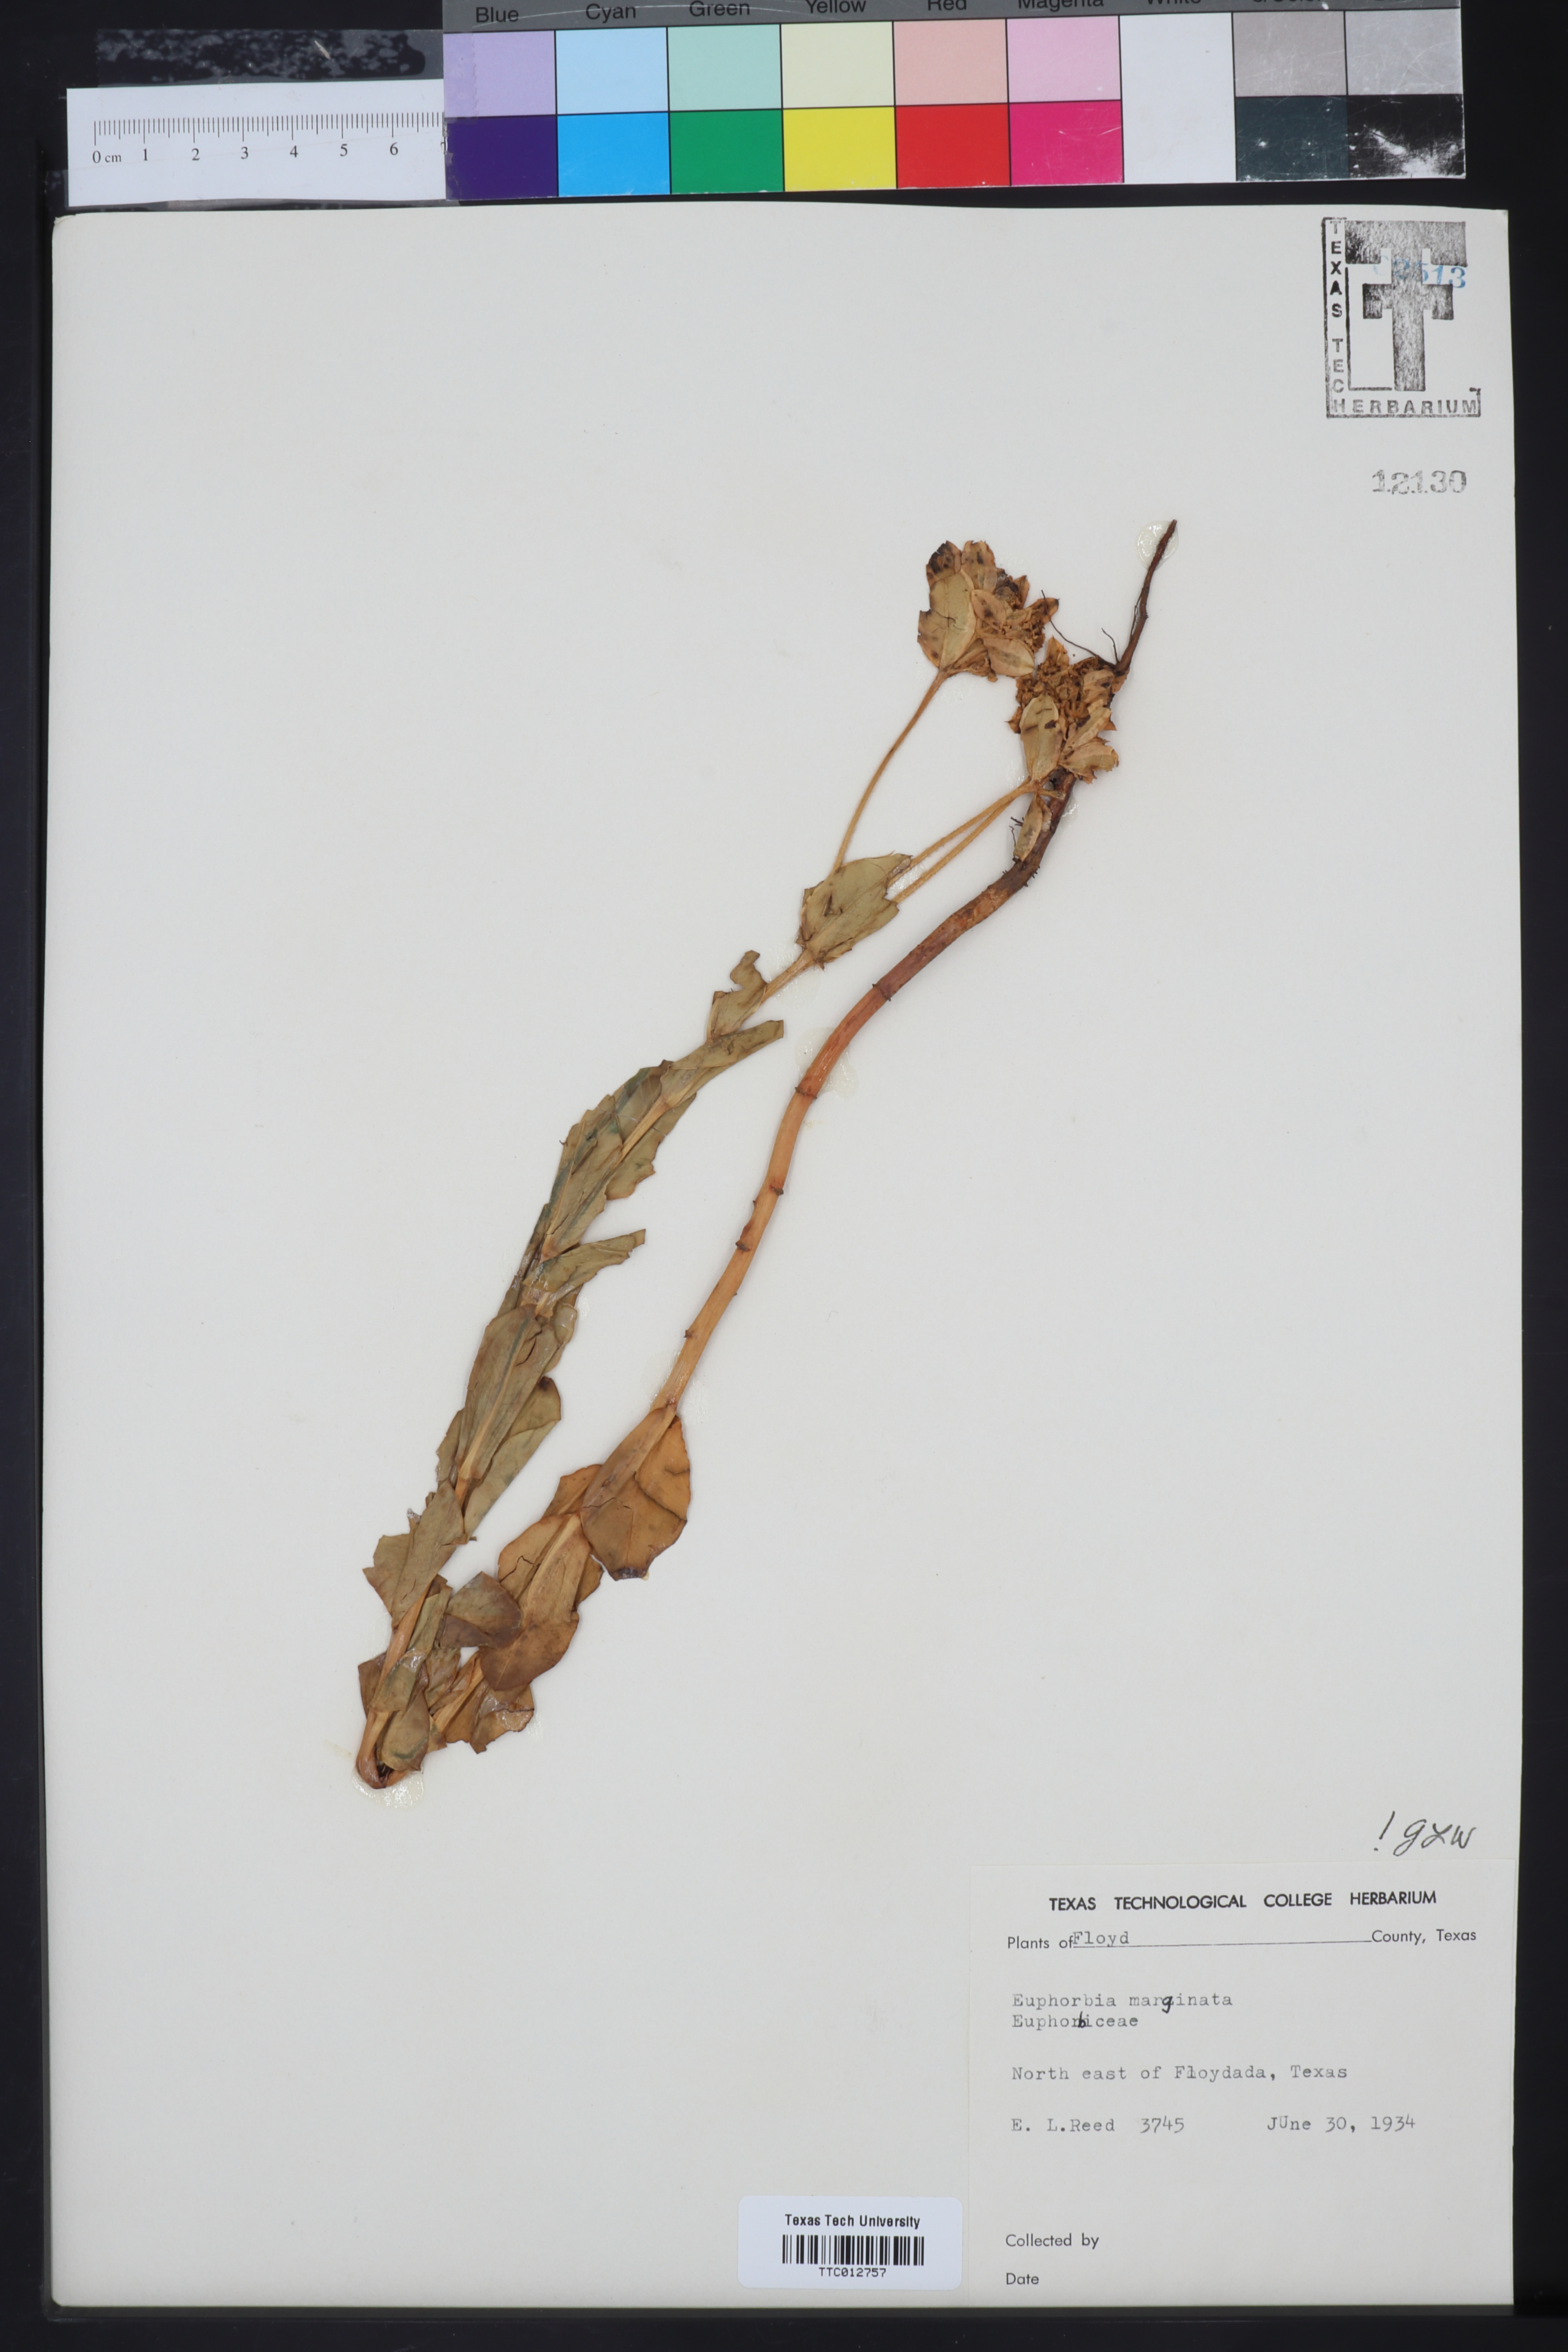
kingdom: Plantae
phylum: Tracheophyta
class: Magnoliopsida
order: Malpighiales
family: Euphorbiaceae
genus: Euphorbia
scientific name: Euphorbia marginata
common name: Ghostweed
